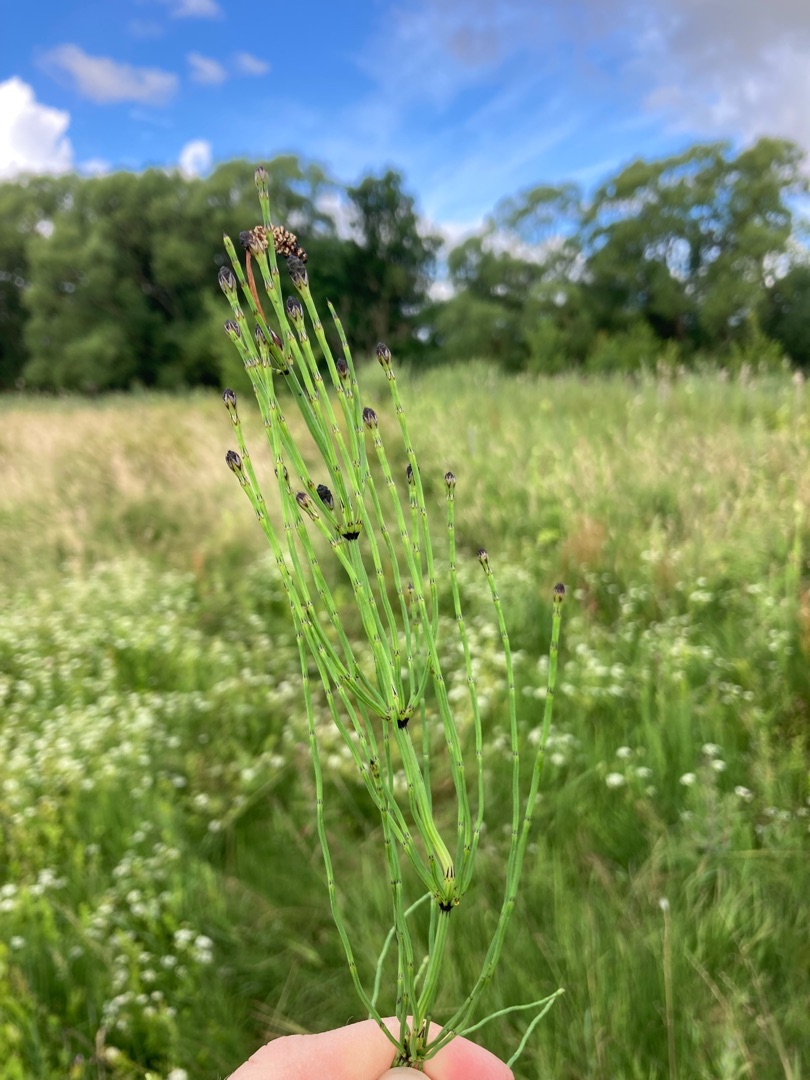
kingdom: Plantae
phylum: Tracheophyta
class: Polypodiopsida
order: Equisetales
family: Equisetaceae
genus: Equisetum
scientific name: Equisetum palustre
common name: Kær-padderok
